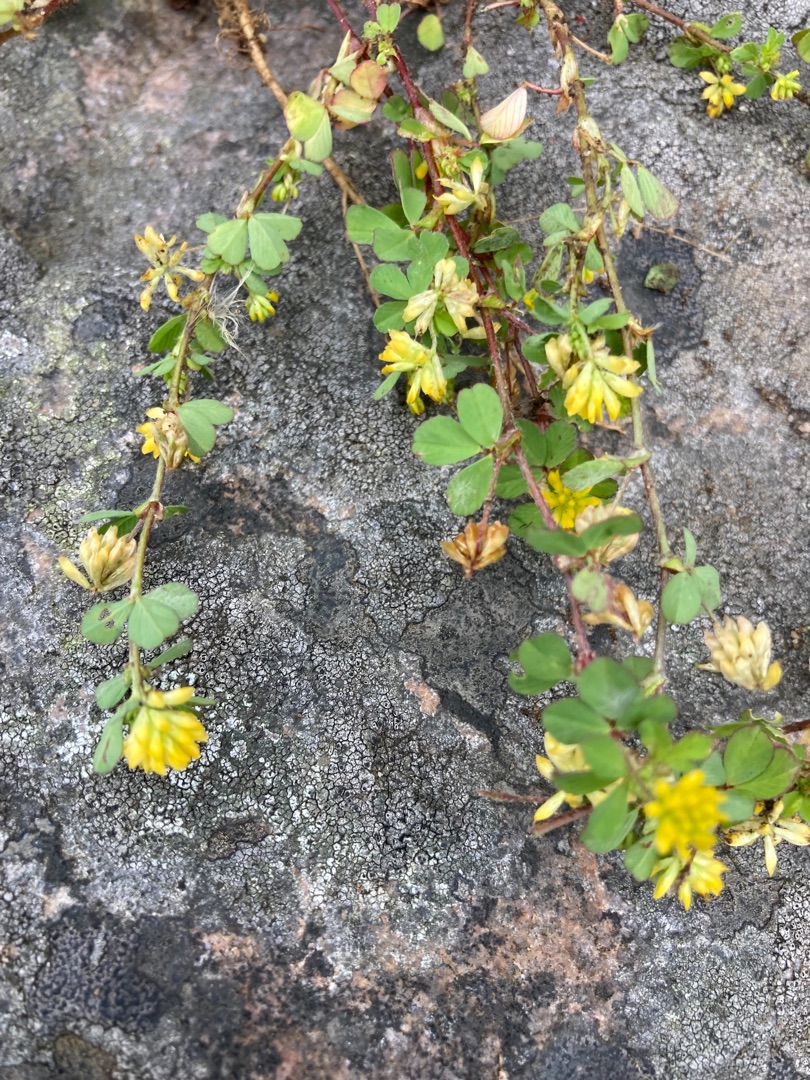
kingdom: Plantae
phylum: Tracheophyta
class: Magnoliopsida
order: Fabales
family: Fabaceae
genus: Trifolium
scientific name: Trifolium dubium
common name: Fin kløver
